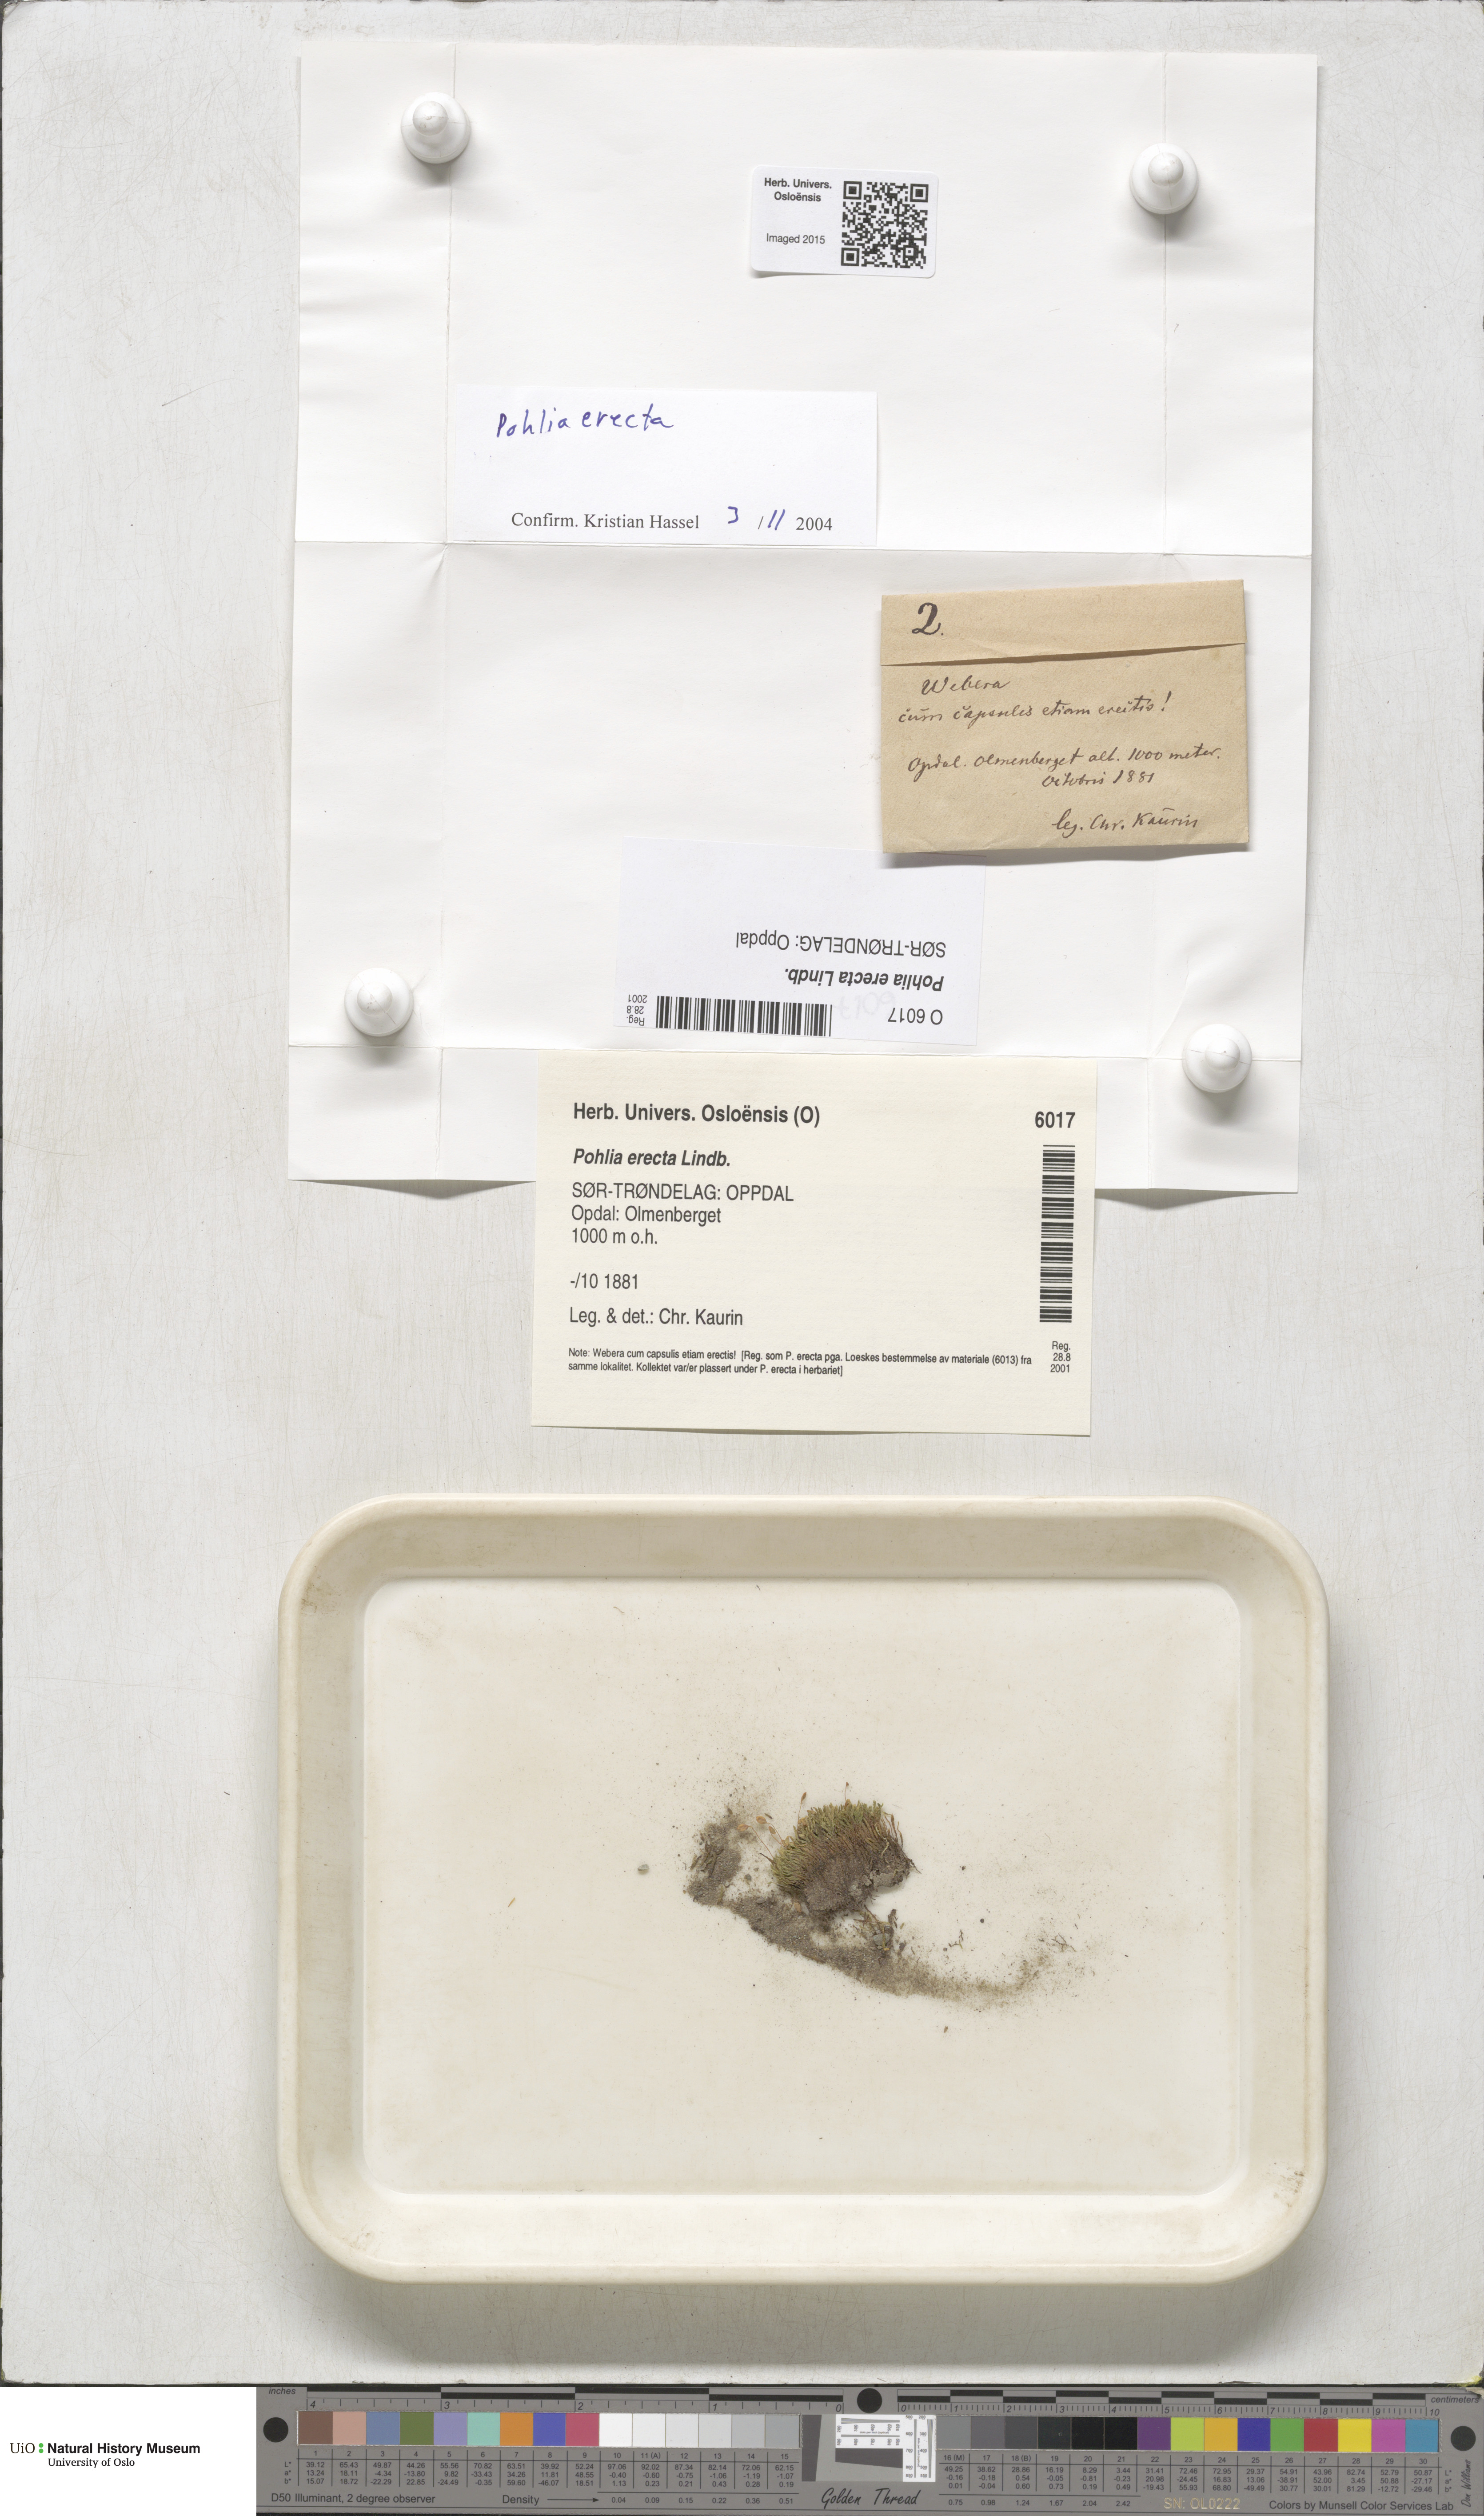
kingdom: Plantae
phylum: Bryophyta
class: Bryopsida
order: Bryales
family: Mniaceae
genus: Pohlia
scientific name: Pohlia erecta
